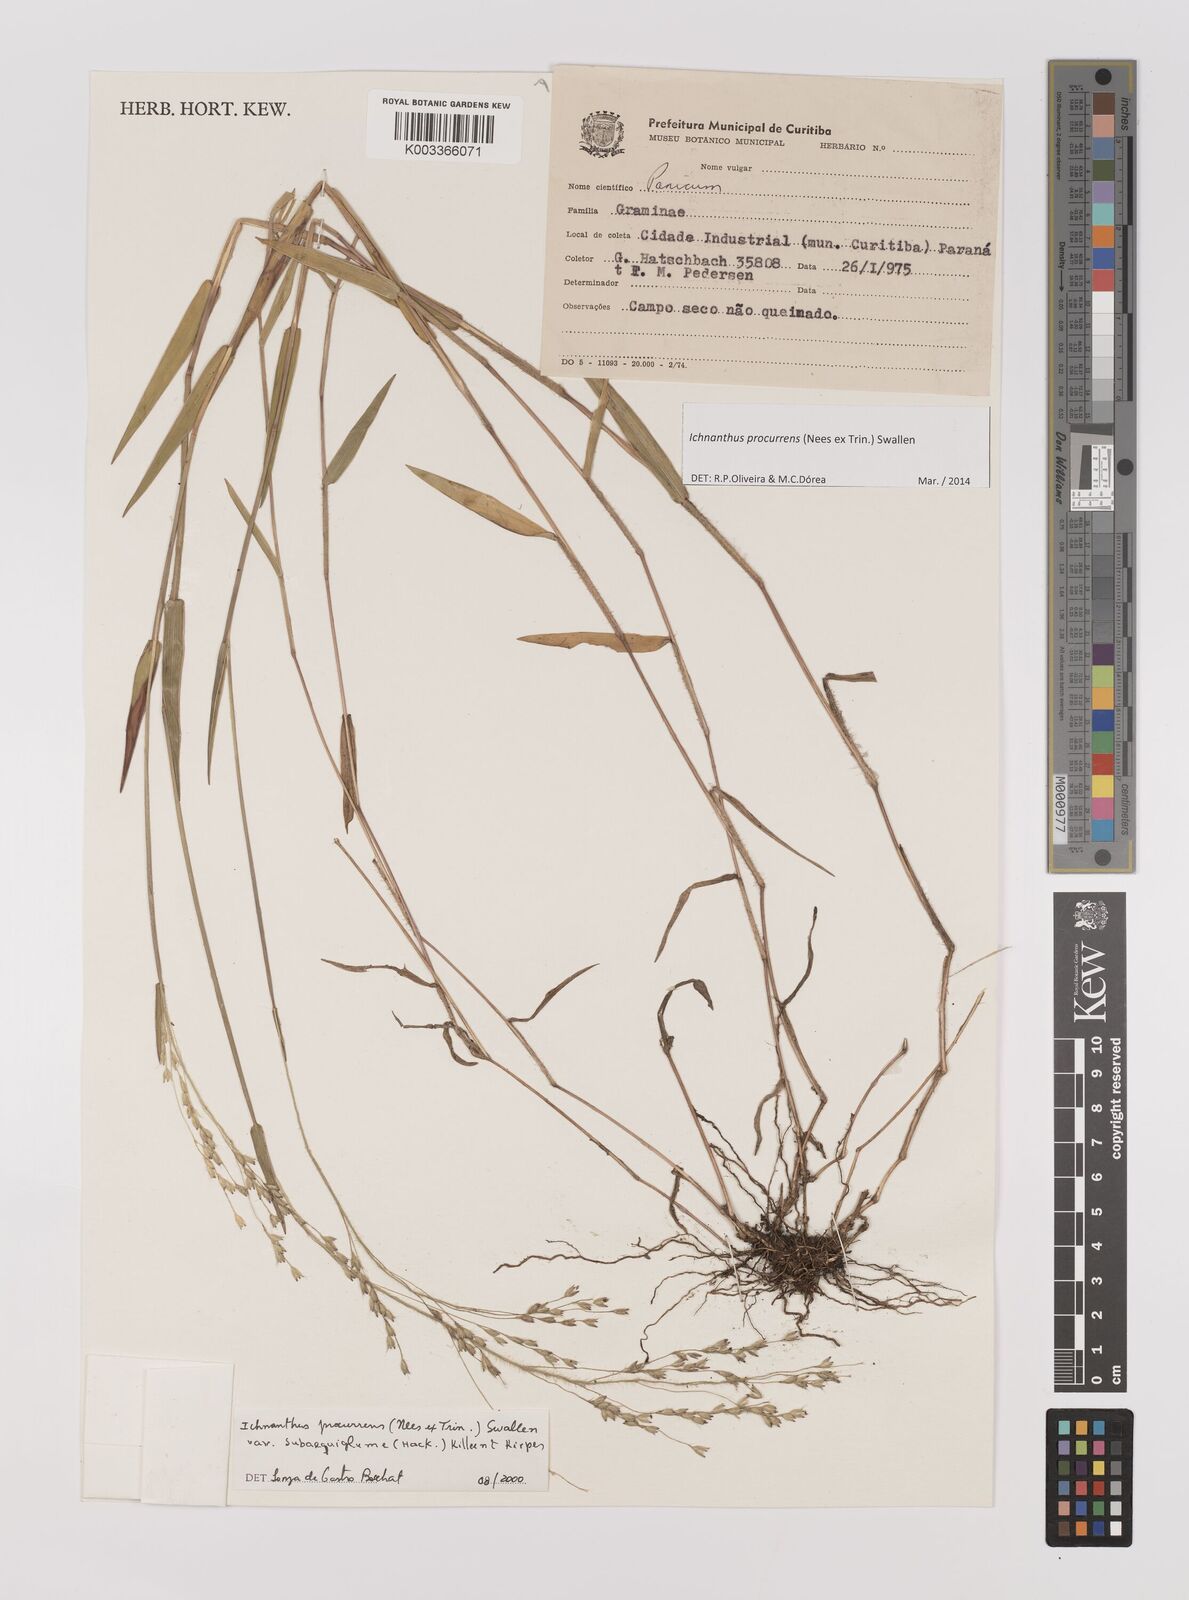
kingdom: Plantae
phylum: Tracheophyta
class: Liliopsida
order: Poales
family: Poaceae
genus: Oedochloa
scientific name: Oedochloa procurrens
